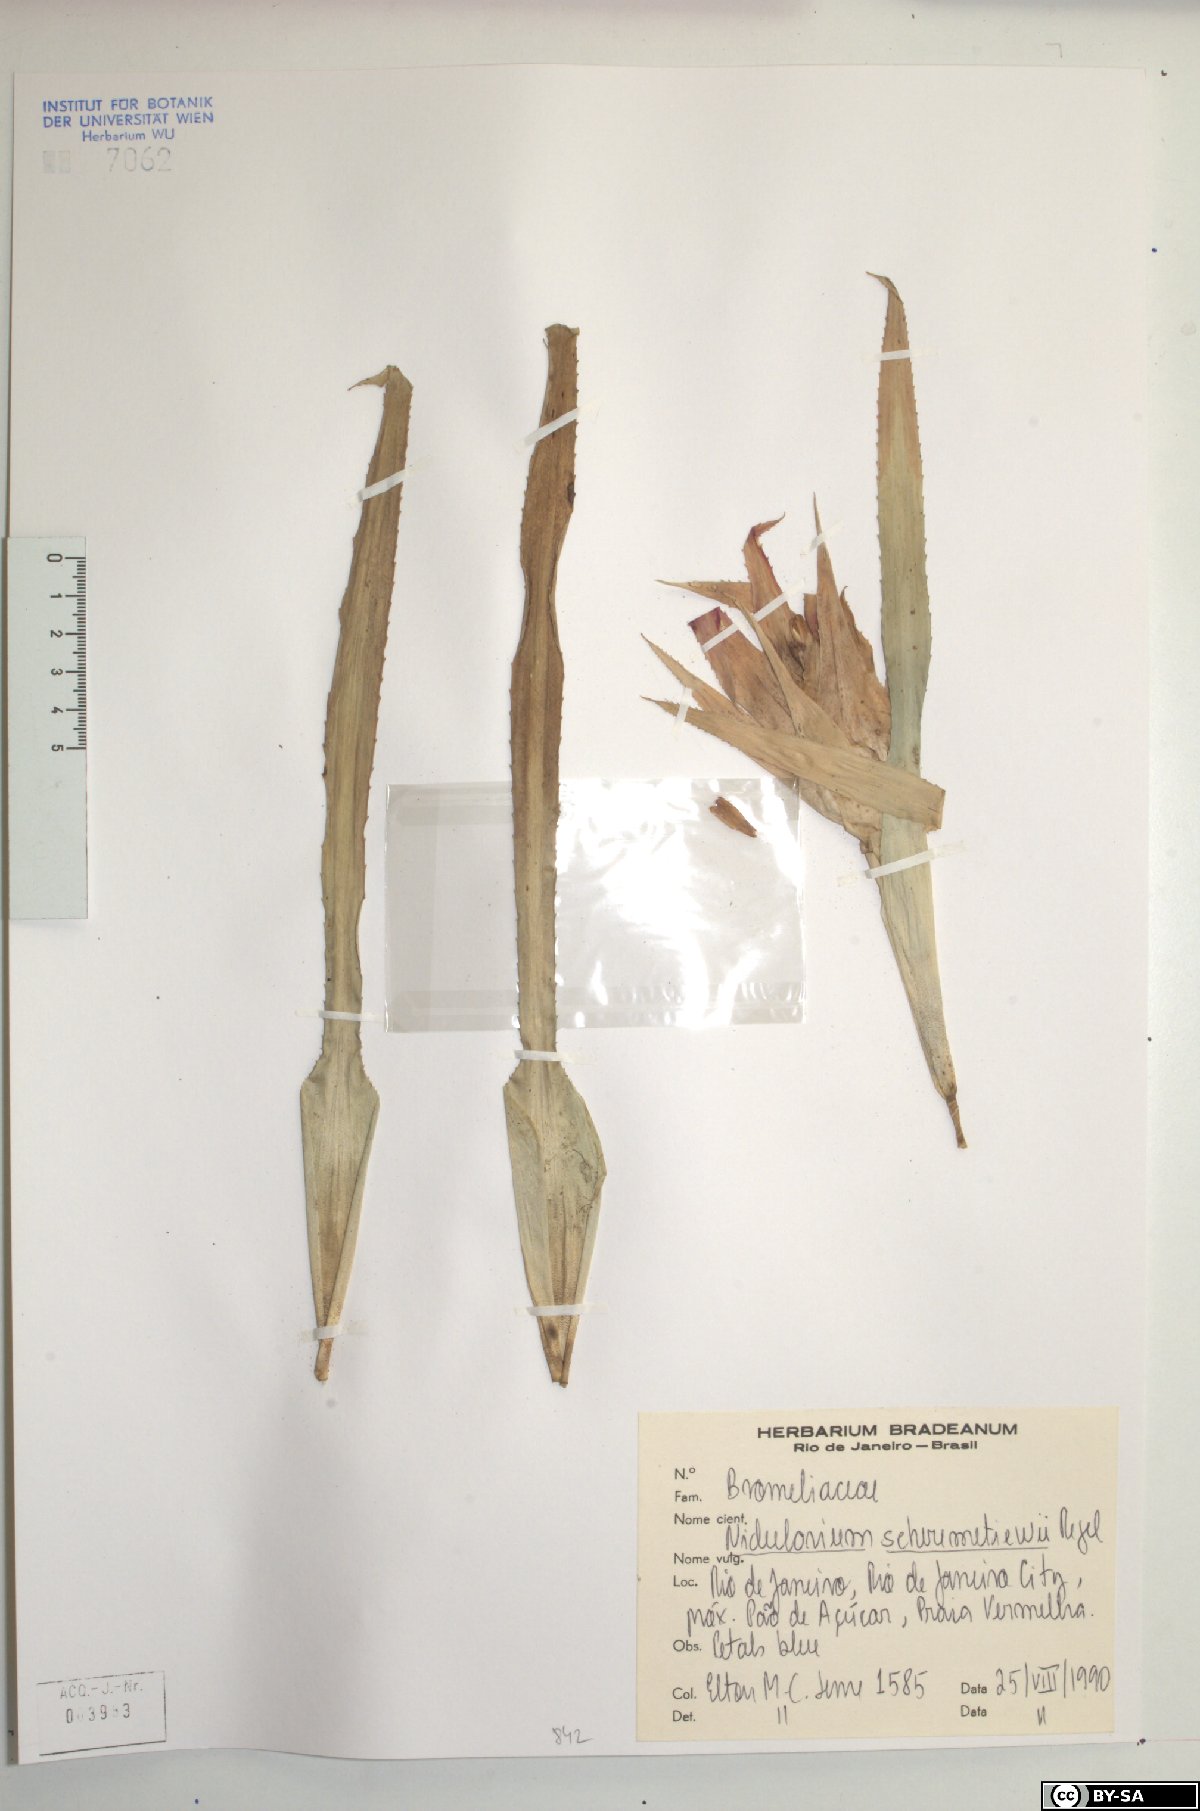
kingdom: Plantae
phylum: Tracheophyta
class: Liliopsida
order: Poales
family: Bromeliaceae
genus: Nidularium
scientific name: Nidularium scheremetiewii
